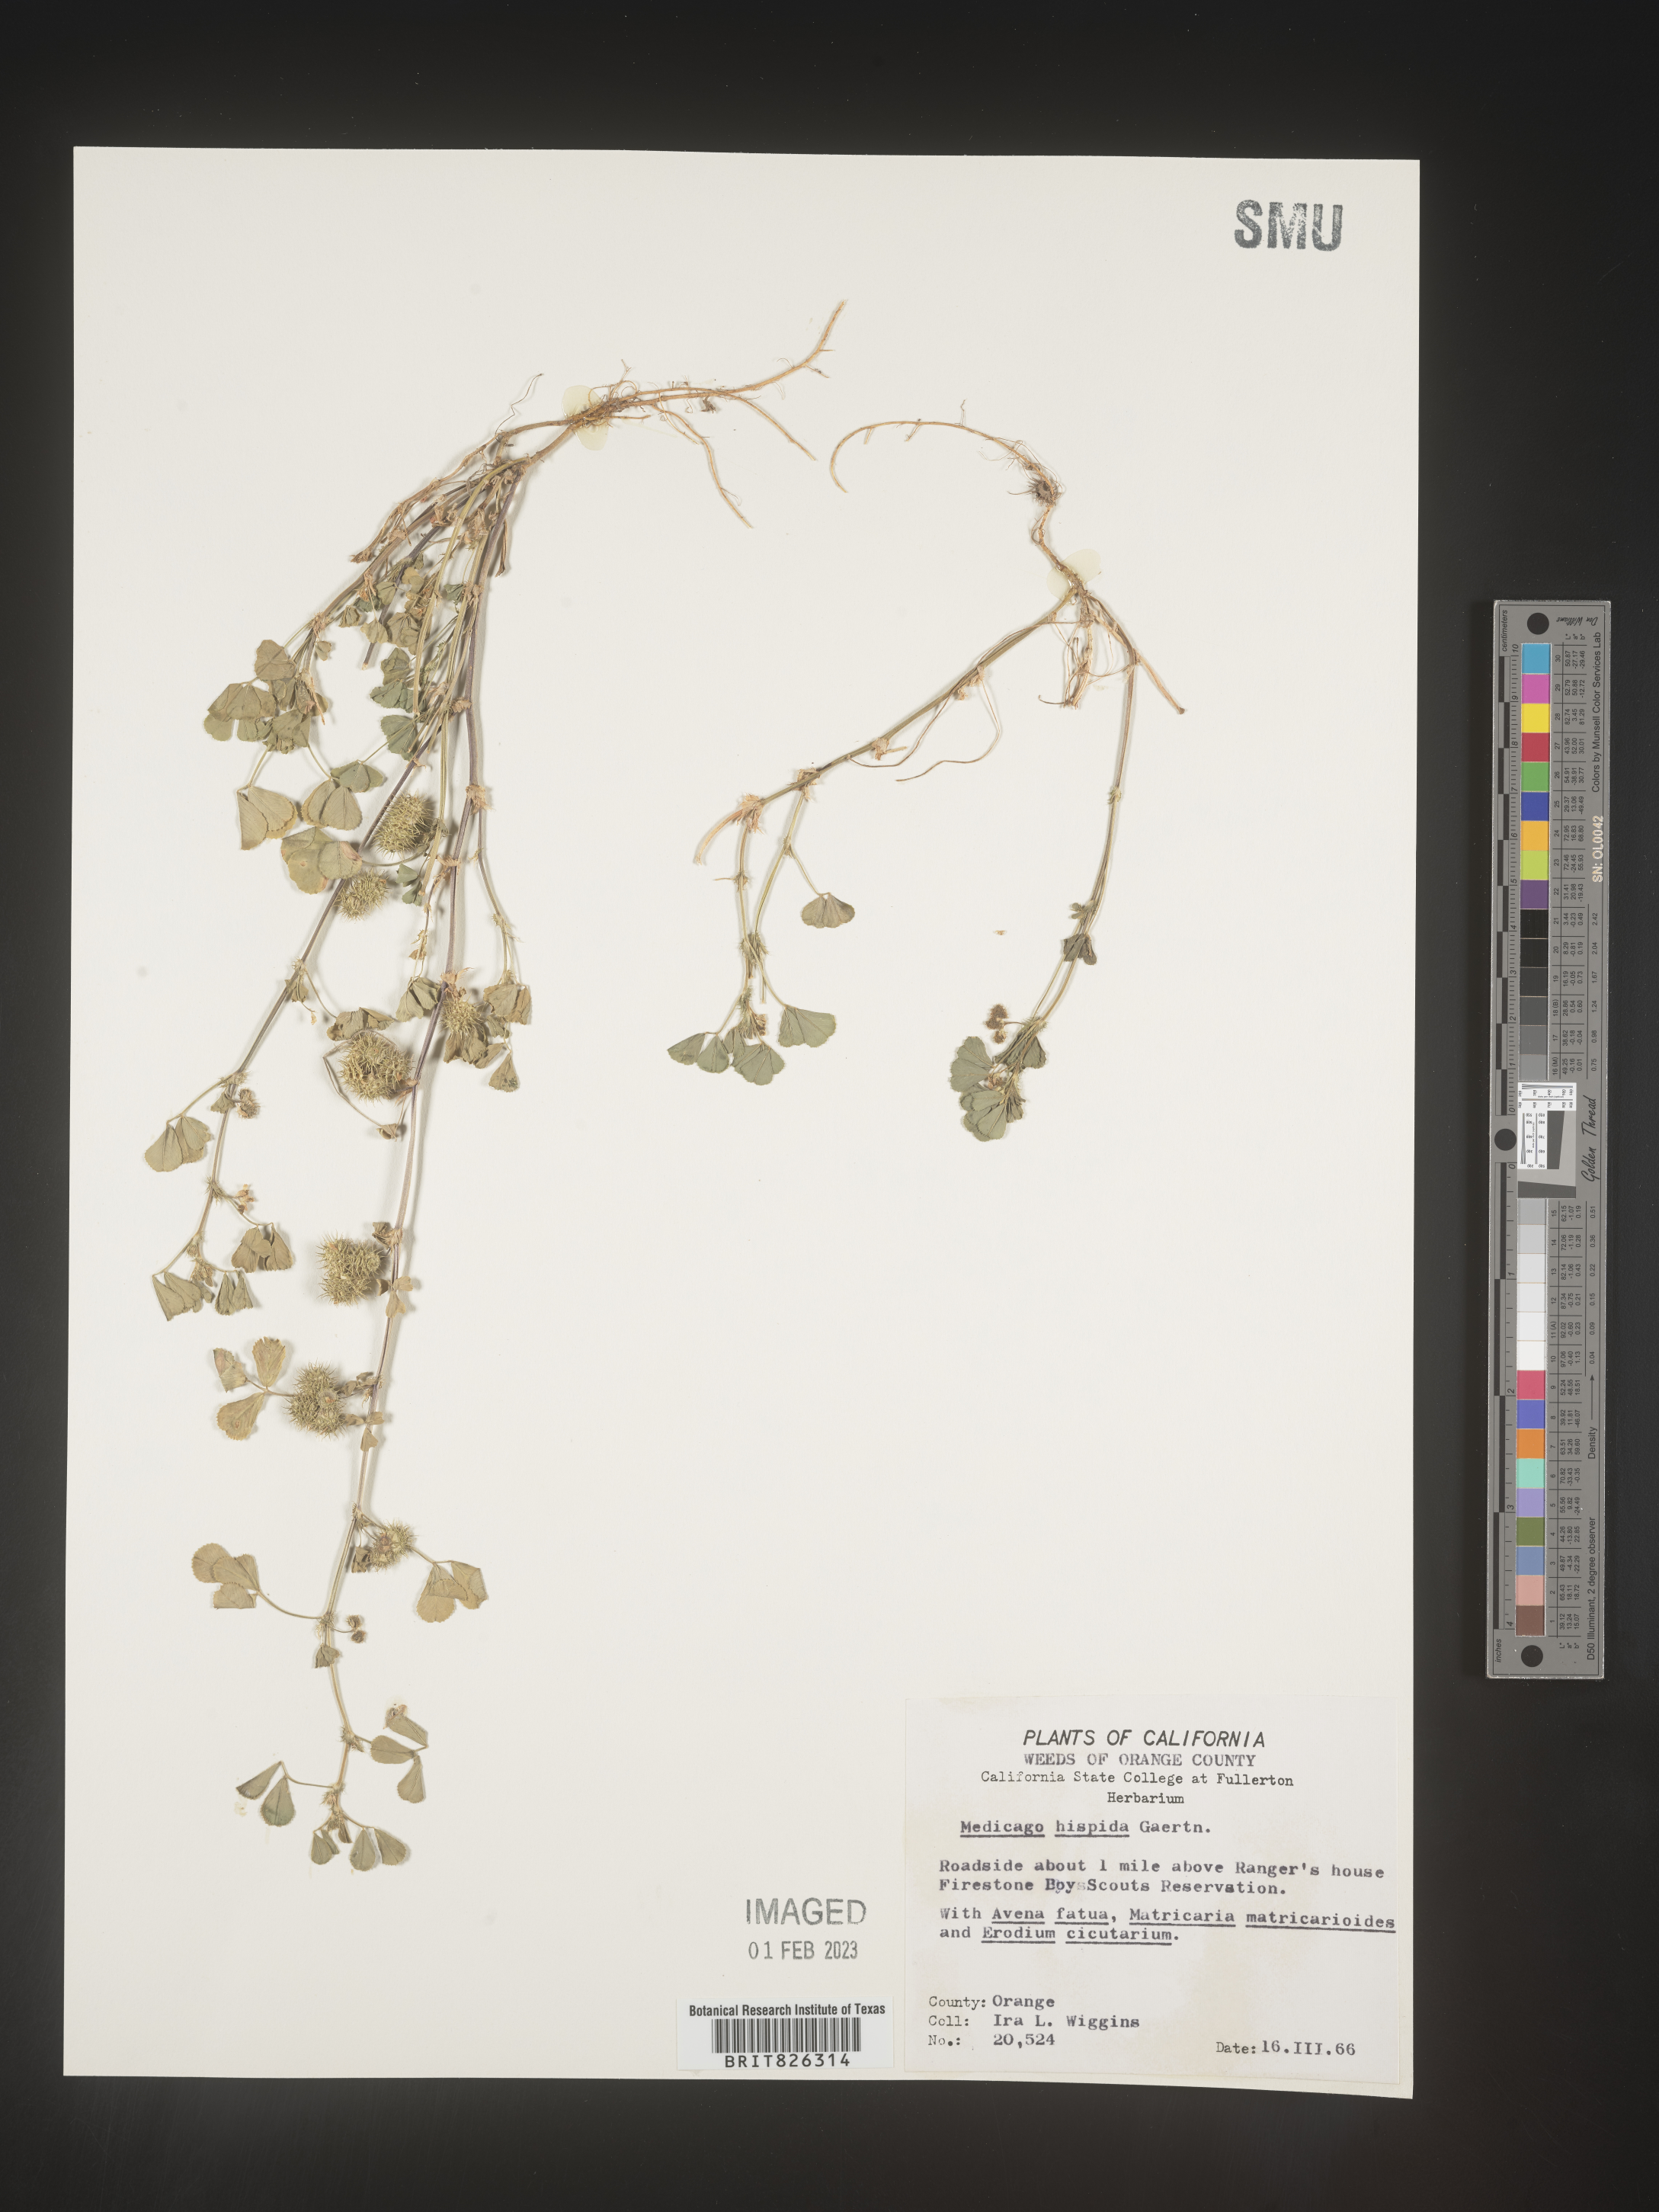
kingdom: Plantae
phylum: Tracheophyta
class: Magnoliopsida
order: Fabales
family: Fabaceae
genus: Medicago
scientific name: Medicago polymorpha
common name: Burclover
